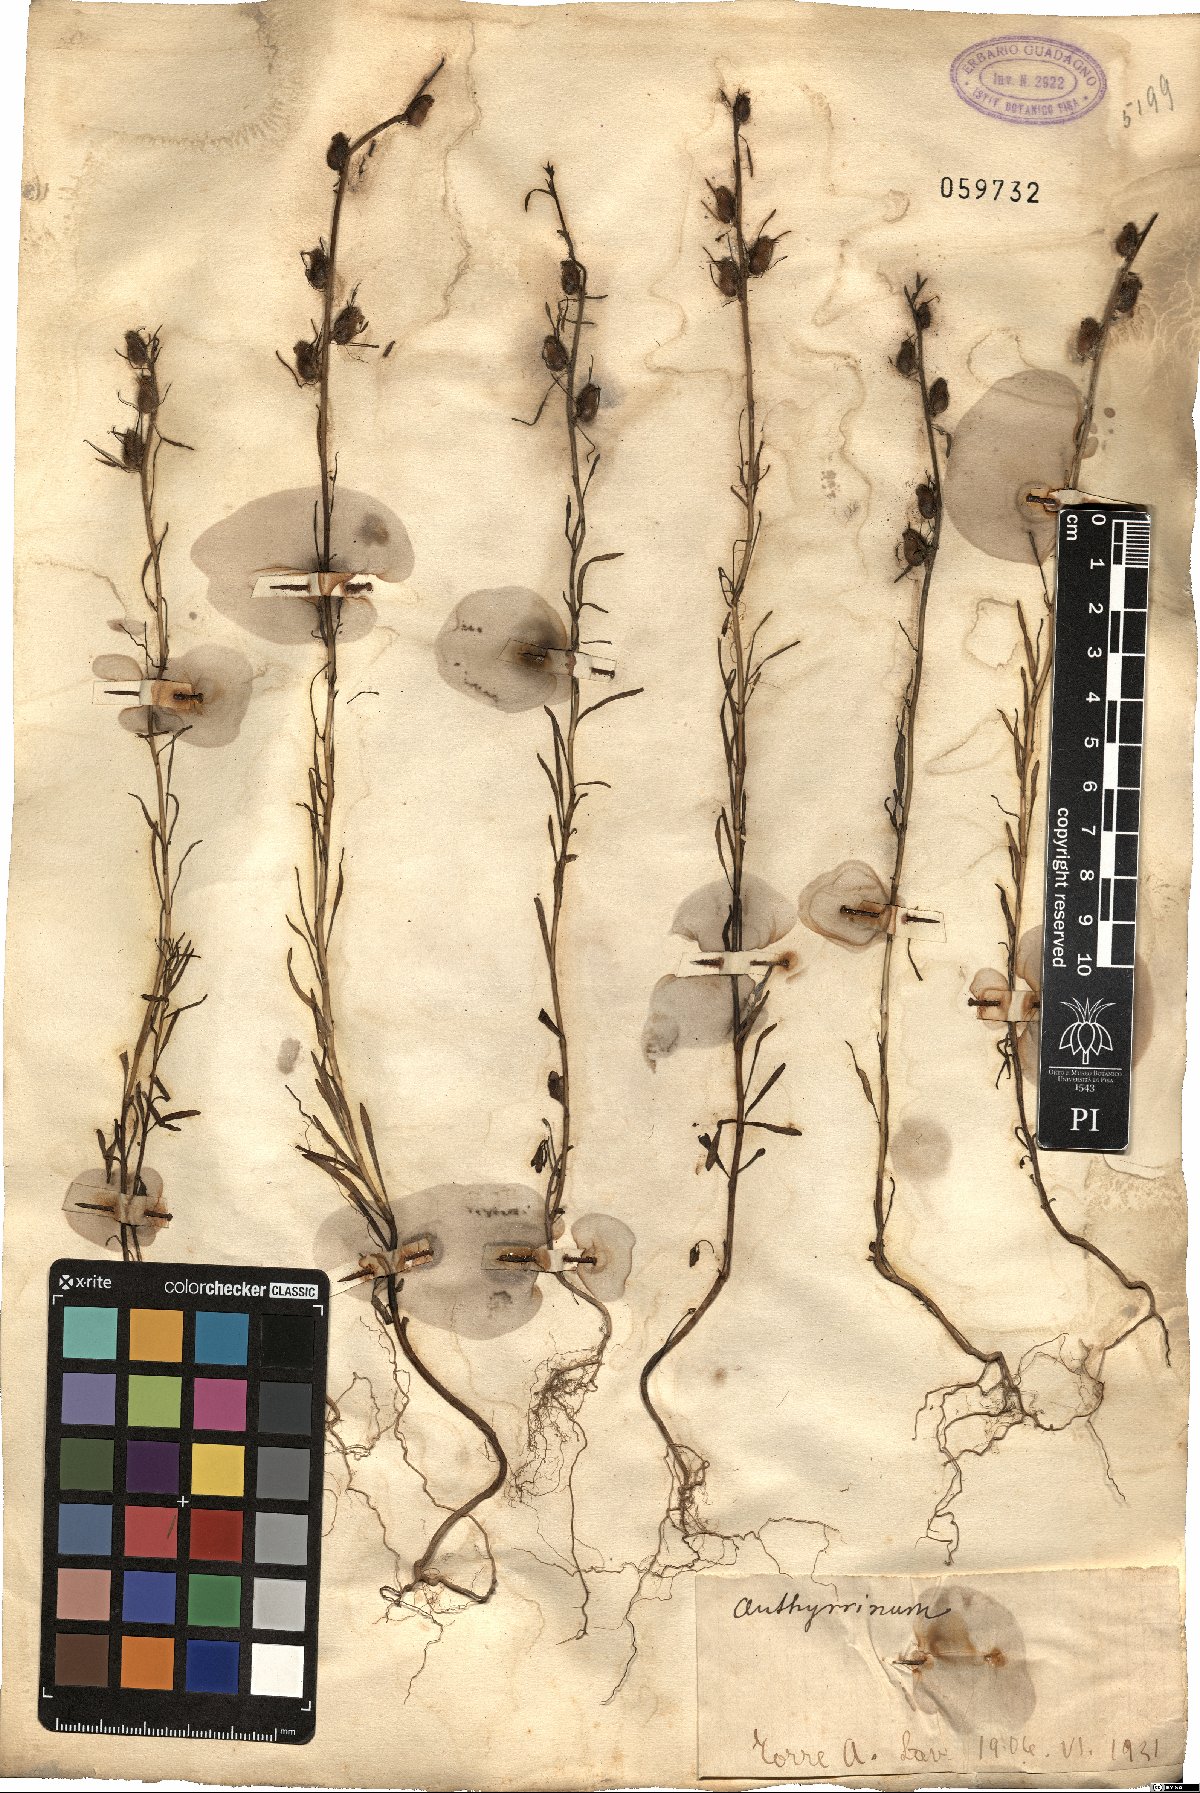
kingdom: Plantae
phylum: Tracheophyta
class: Magnoliopsida
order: Lamiales
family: Plantaginaceae
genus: Antirrhinum
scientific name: Antirrhinum
